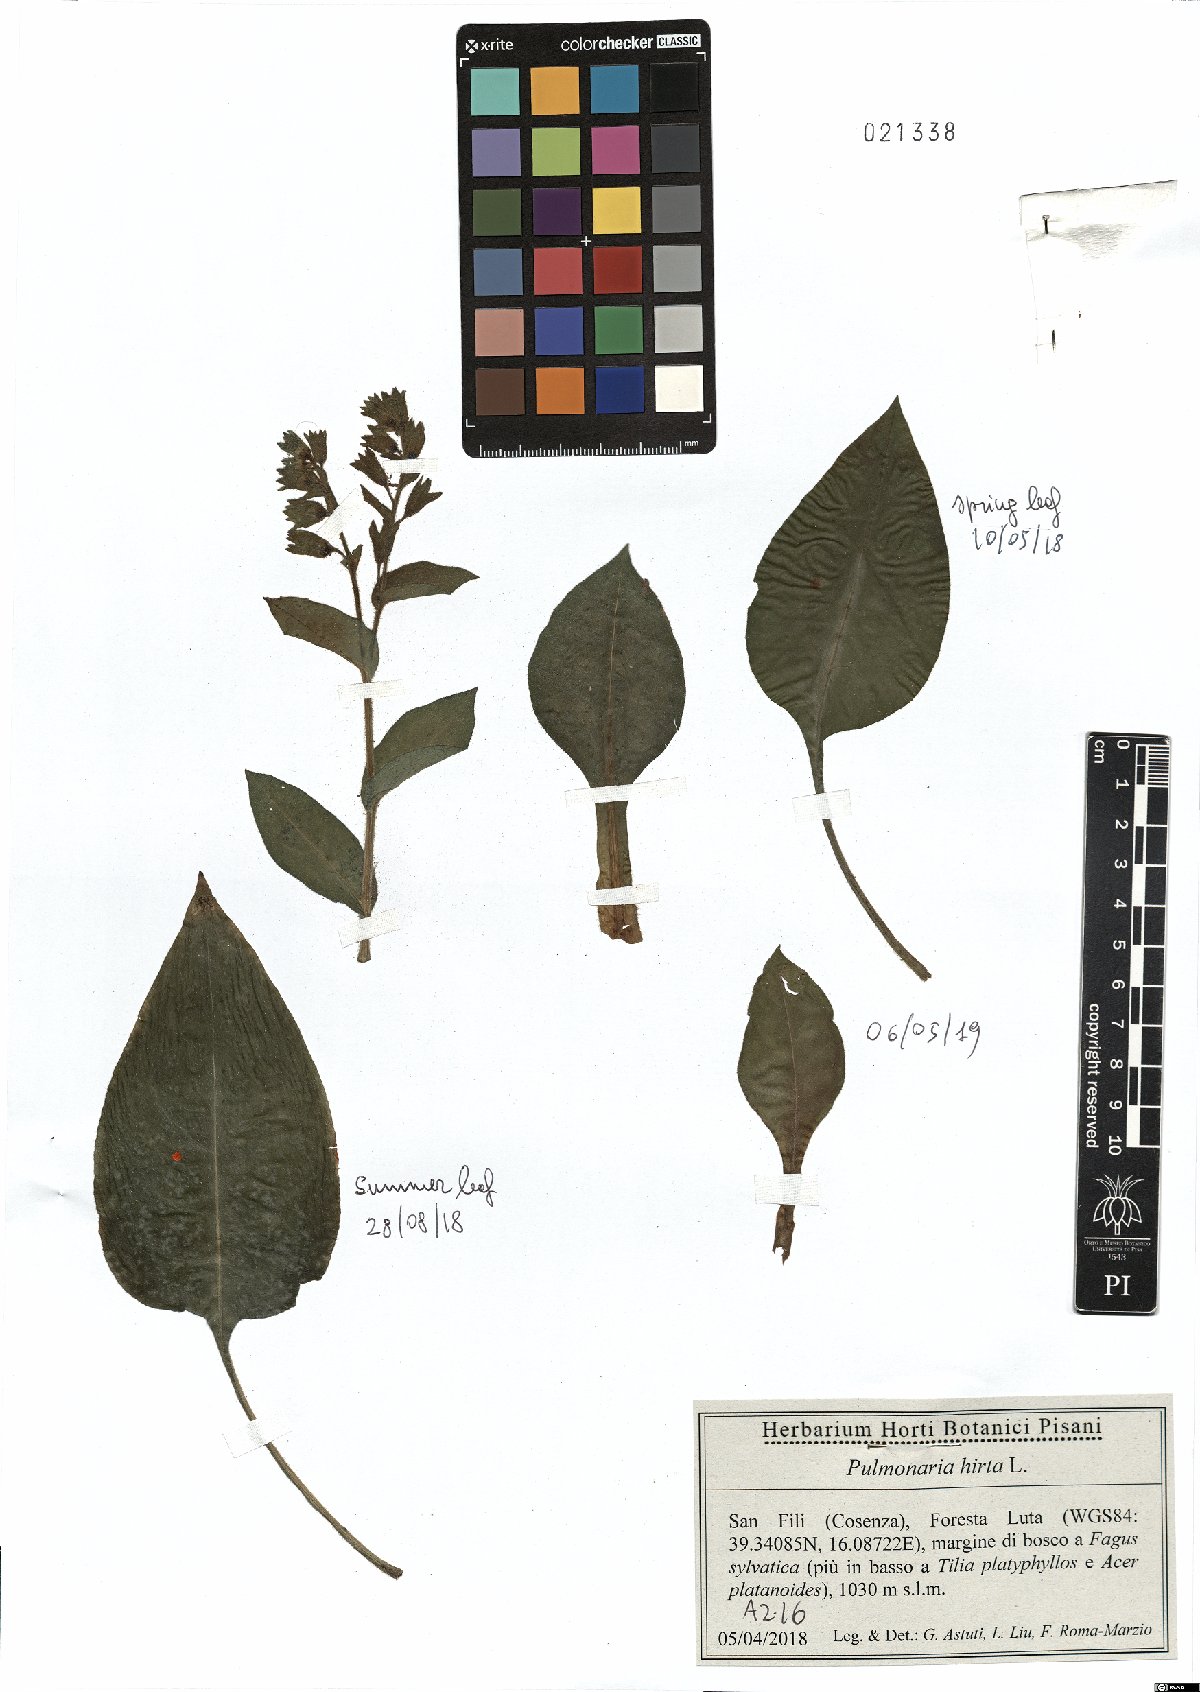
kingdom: Plantae
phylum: Tracheophyta
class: Magnoliopsida
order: Boraginales
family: Boraginaceae
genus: Pulmonaria
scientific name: Pulmonaria hirta
